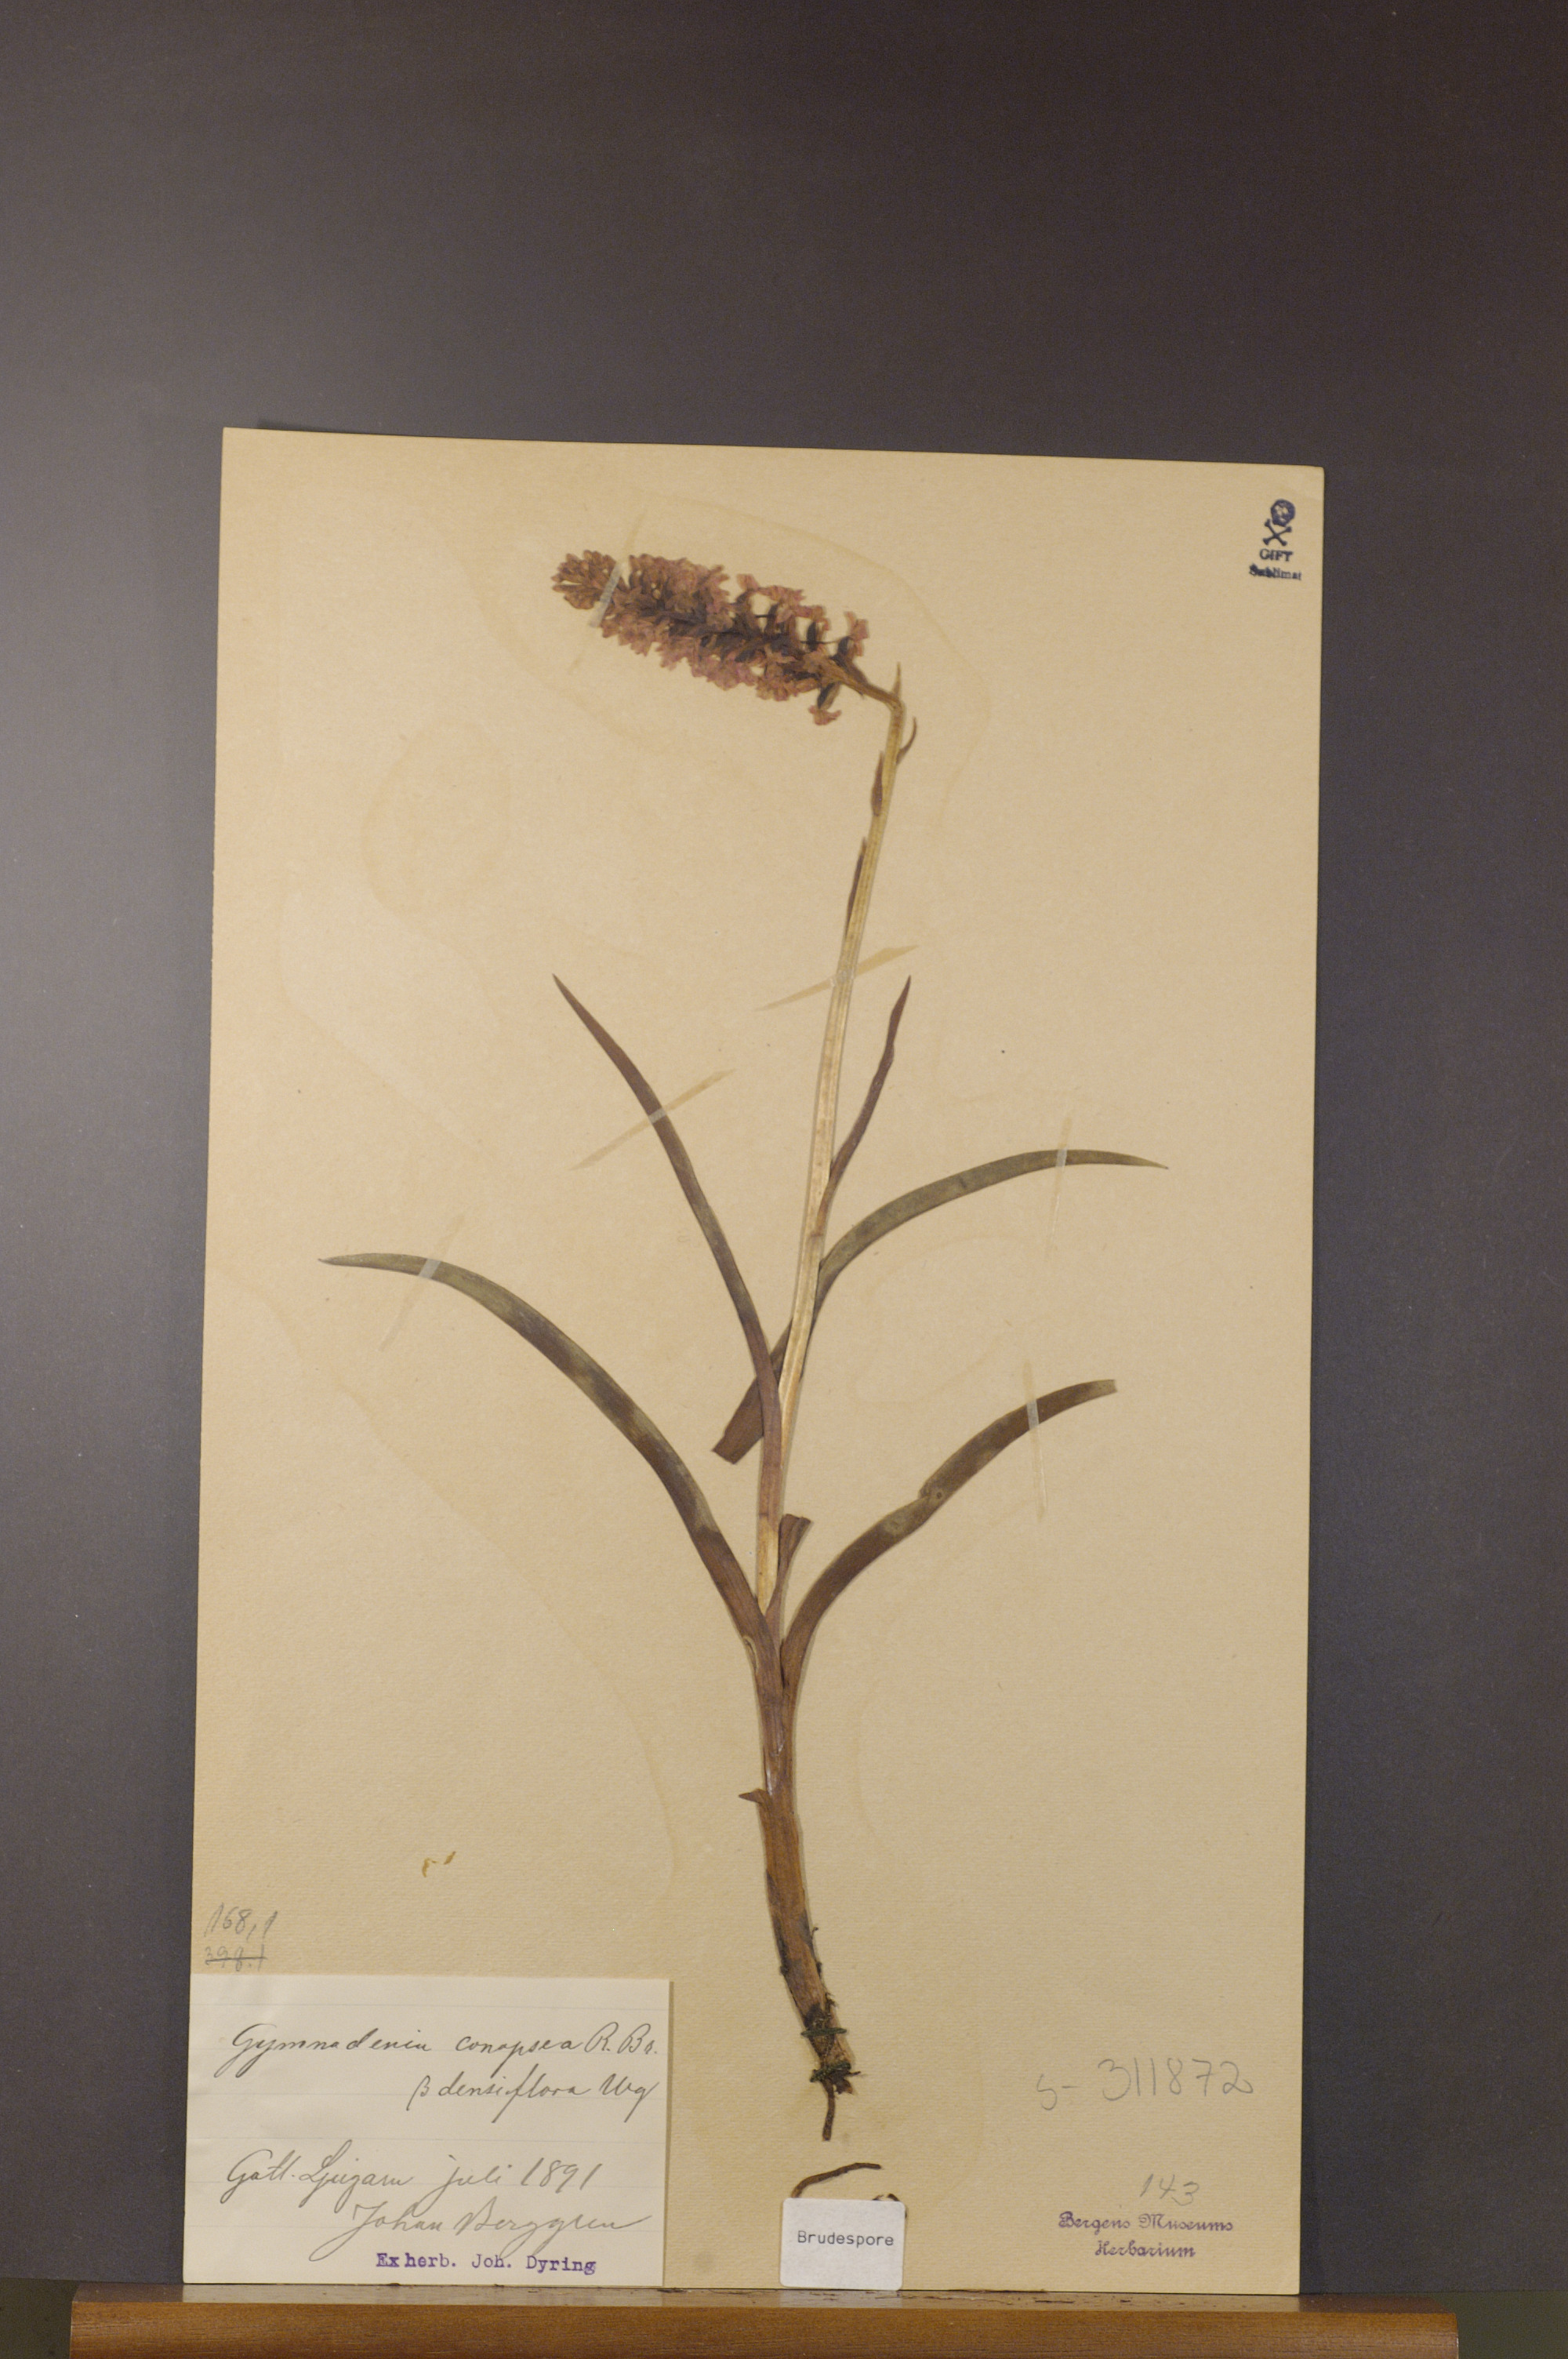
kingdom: Plantae
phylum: Tracheophyta
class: Liliopsida
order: Asparagales
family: Orchidaceae
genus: Gymnadenia
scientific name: Gymnadenia densiflora
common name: Marsh fragrant-orchid
